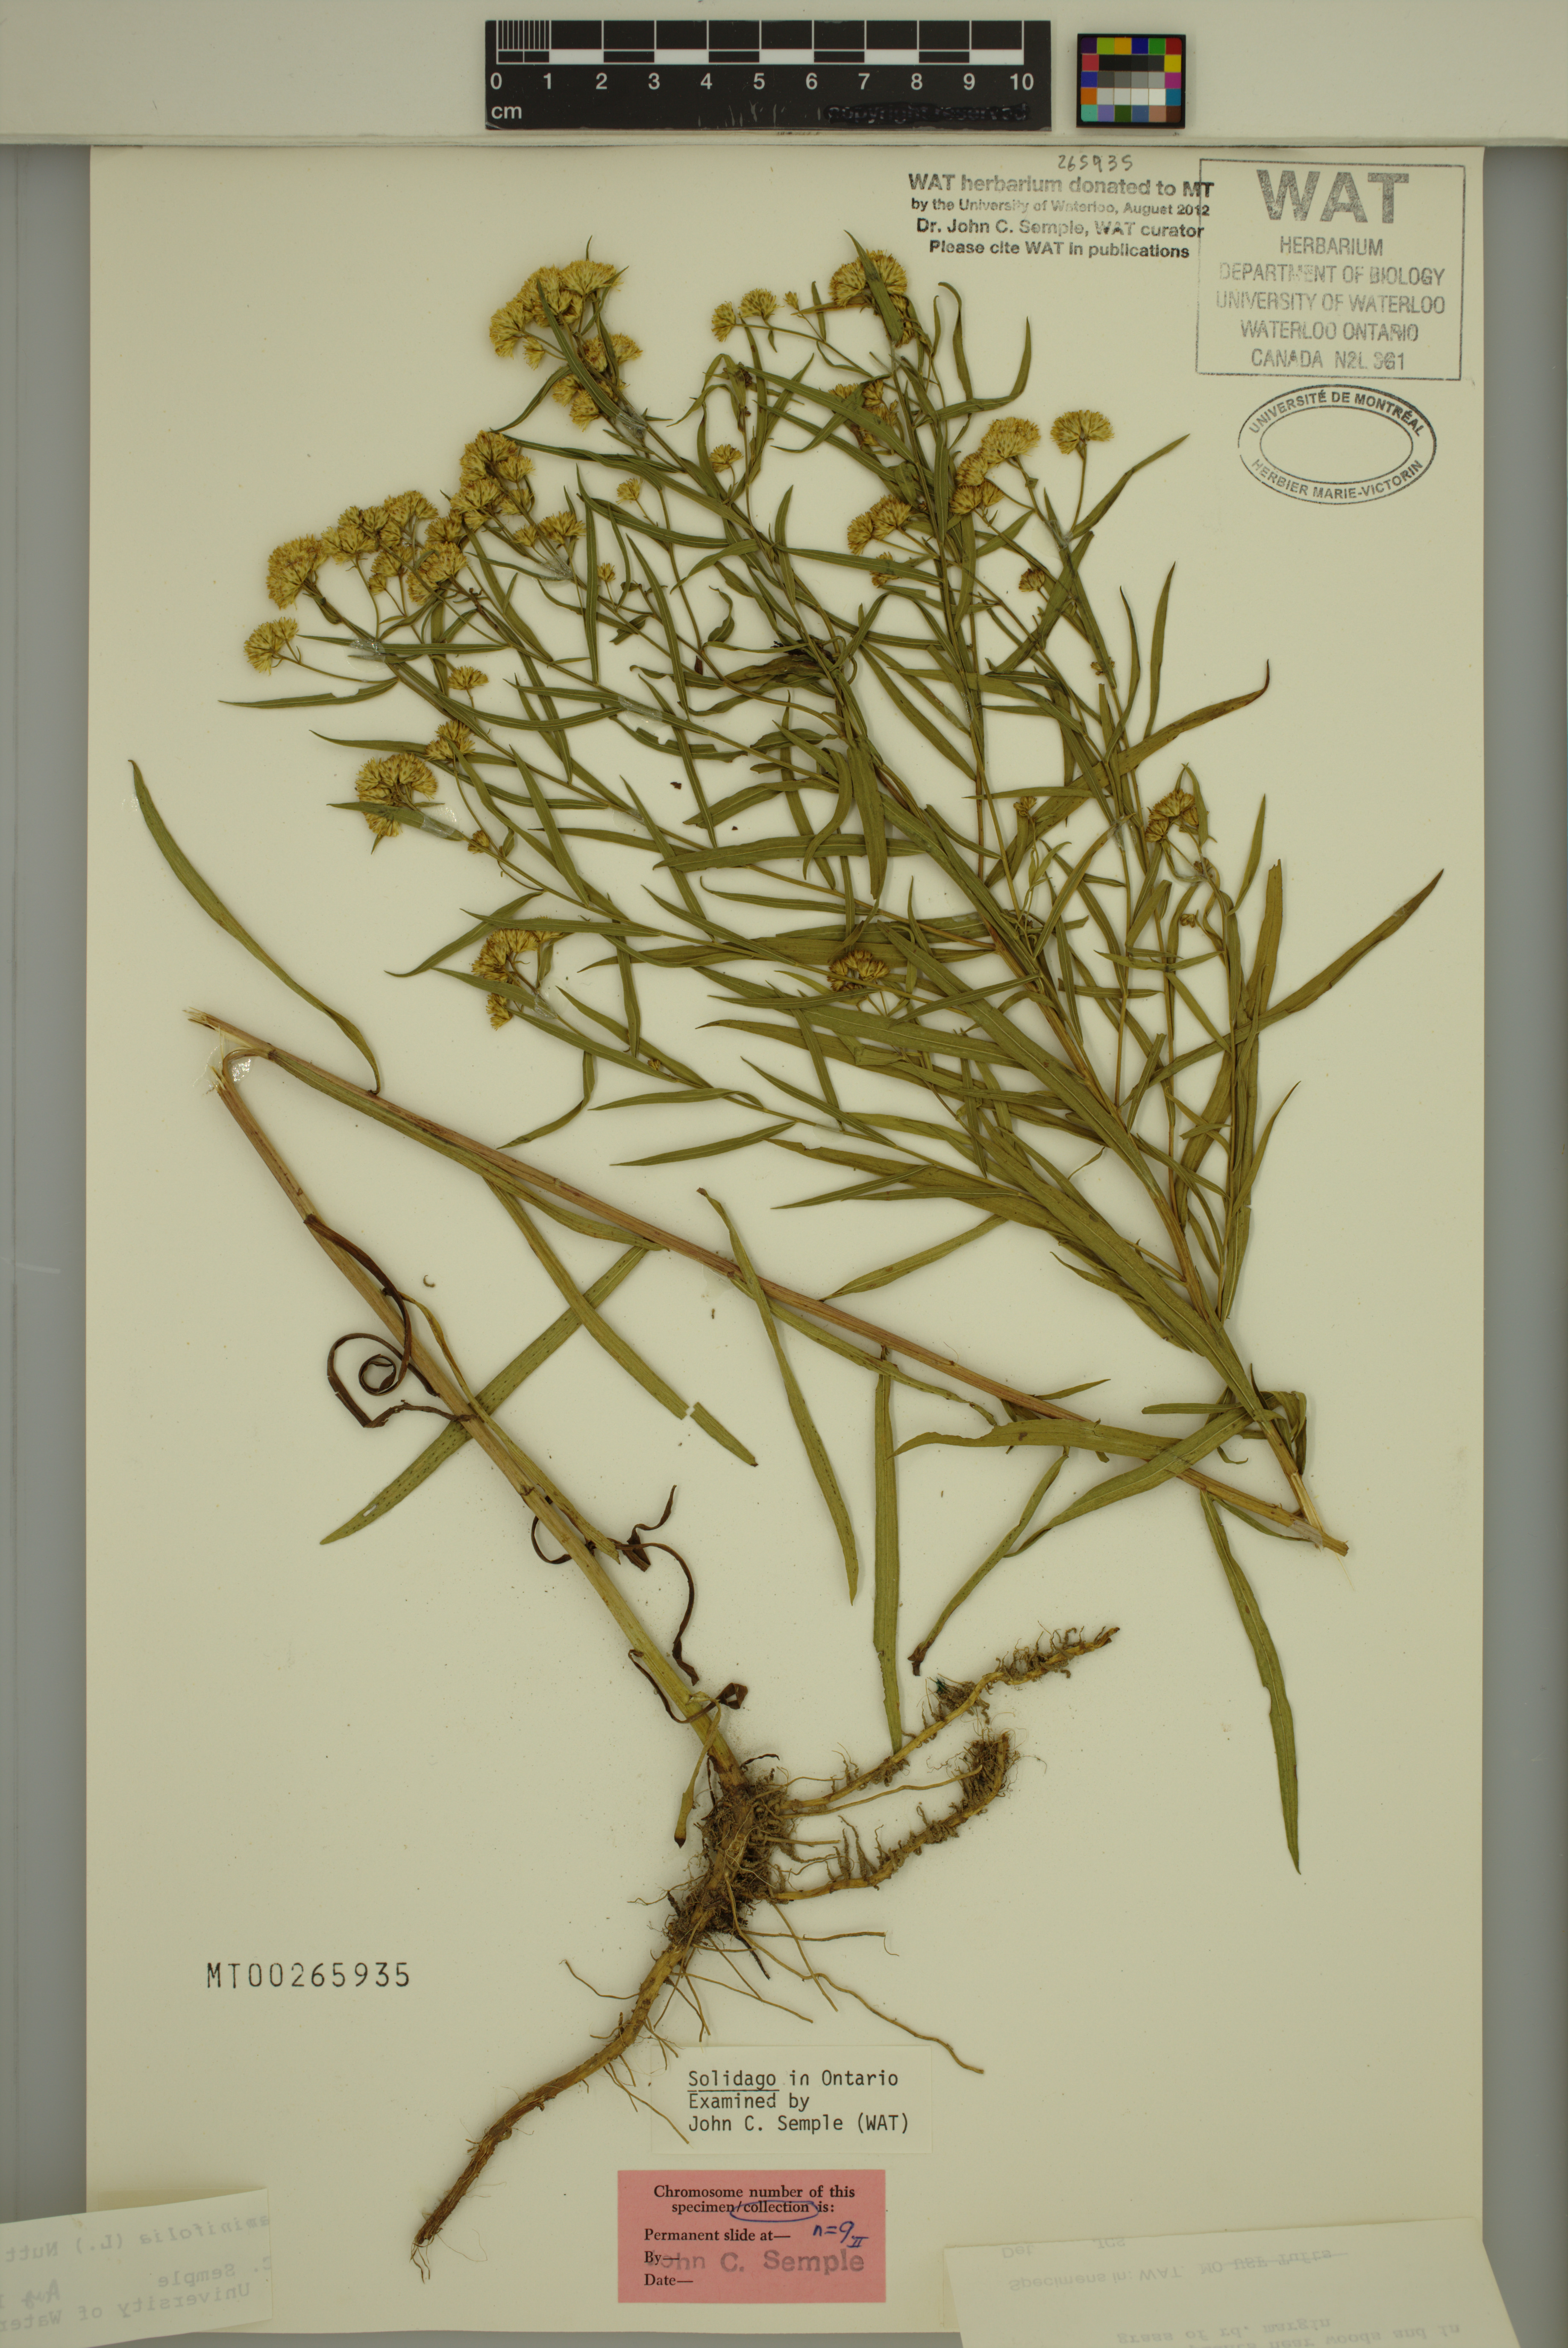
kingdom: Plantae
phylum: Tracheophyta
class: Magnoliopsida
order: Asterales
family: Asteraceae
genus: Euthamia
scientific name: Euthamia graminifolia
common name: Common goldentop
